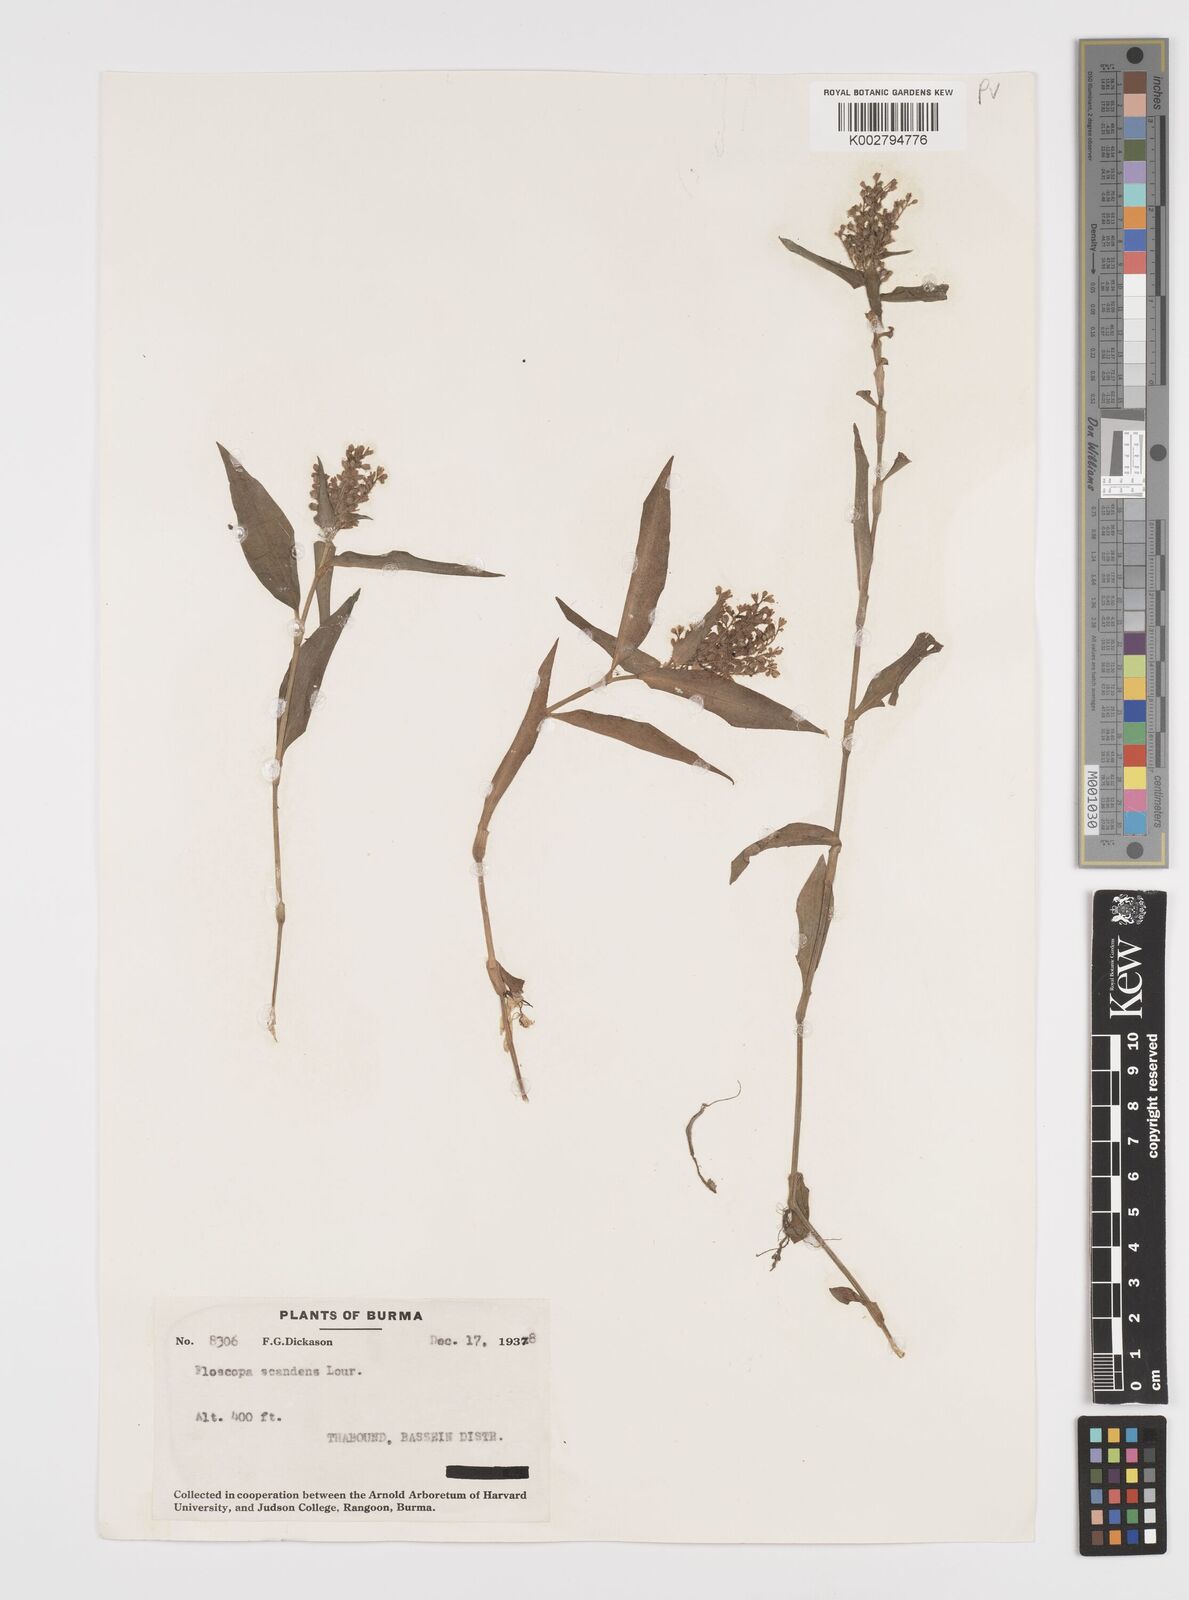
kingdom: Plantae
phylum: Tracheophyta
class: Liliopsida
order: Commelinales
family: Commelinaceae
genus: Floscopa
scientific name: Floscopa scandens
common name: Climbing flower cup
